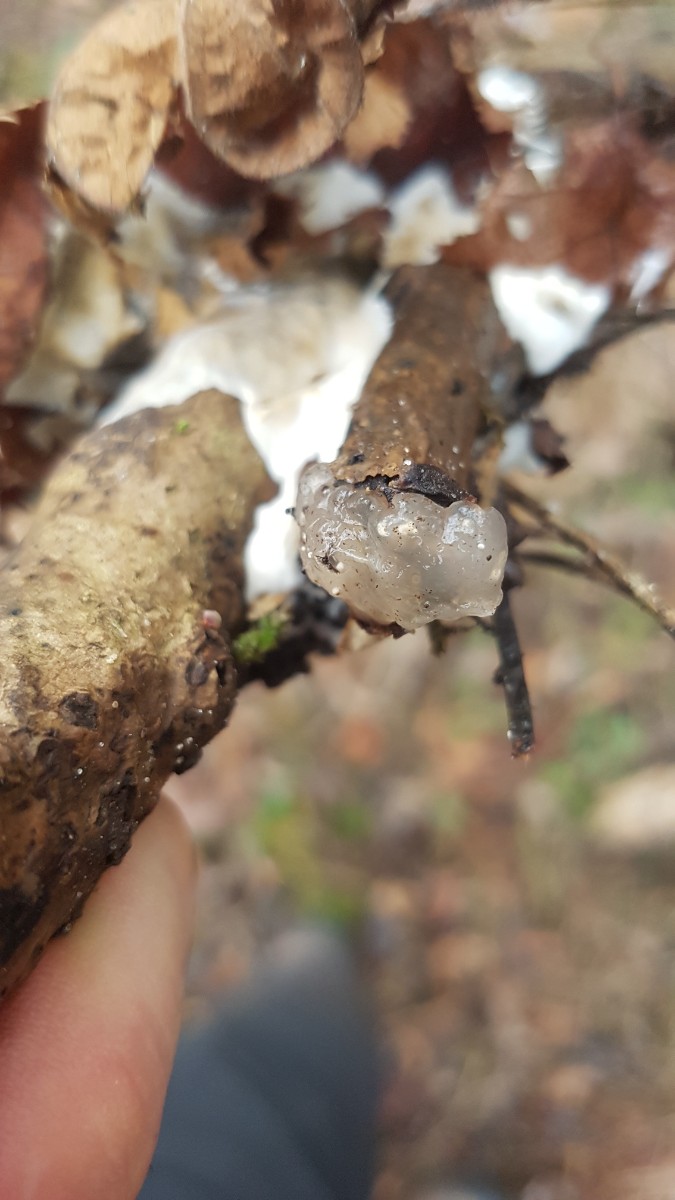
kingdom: Fungi
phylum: Basidiomycota
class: Agaricomycetes
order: Auriculariales
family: Hyaloriaceae
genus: Myxarium
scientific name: Myxarium nucleatum
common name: klar bævretop
